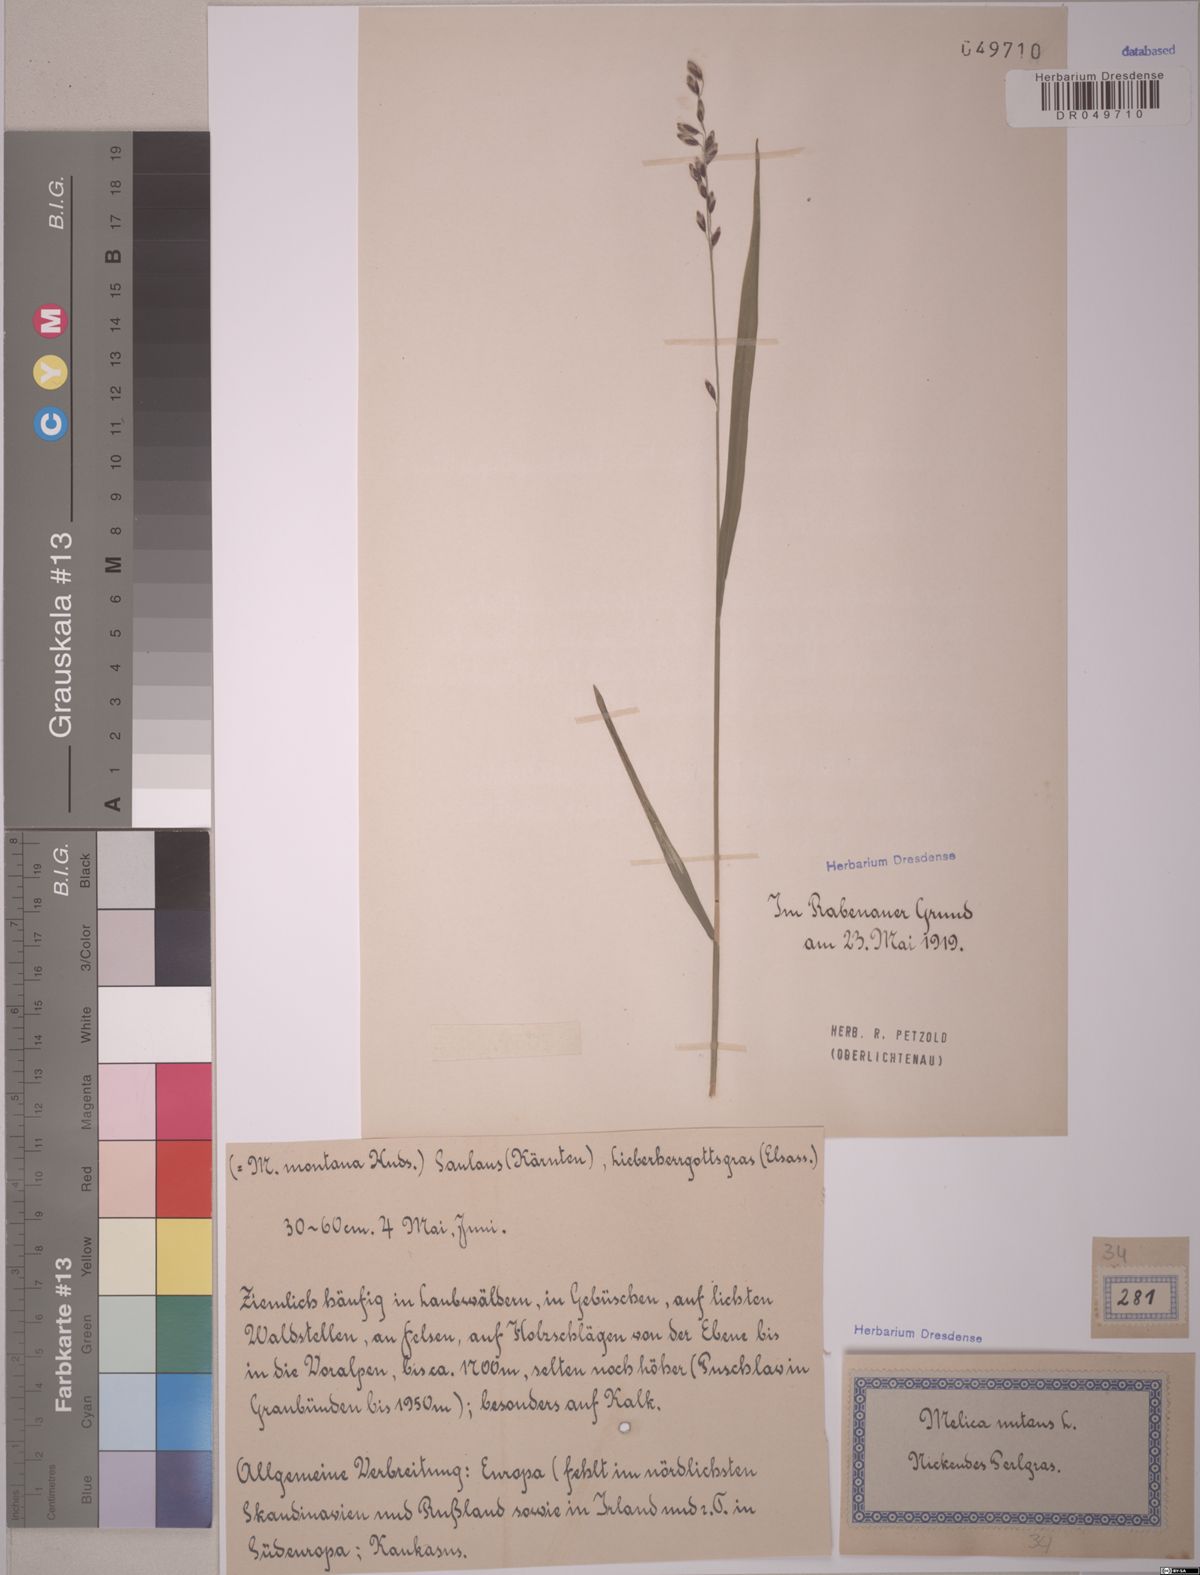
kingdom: Plantae
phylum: Tracheophyta
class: Liliopsida
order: Poales
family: Poaceae
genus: Melica
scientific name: Melica nutans
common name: Mountain melick
